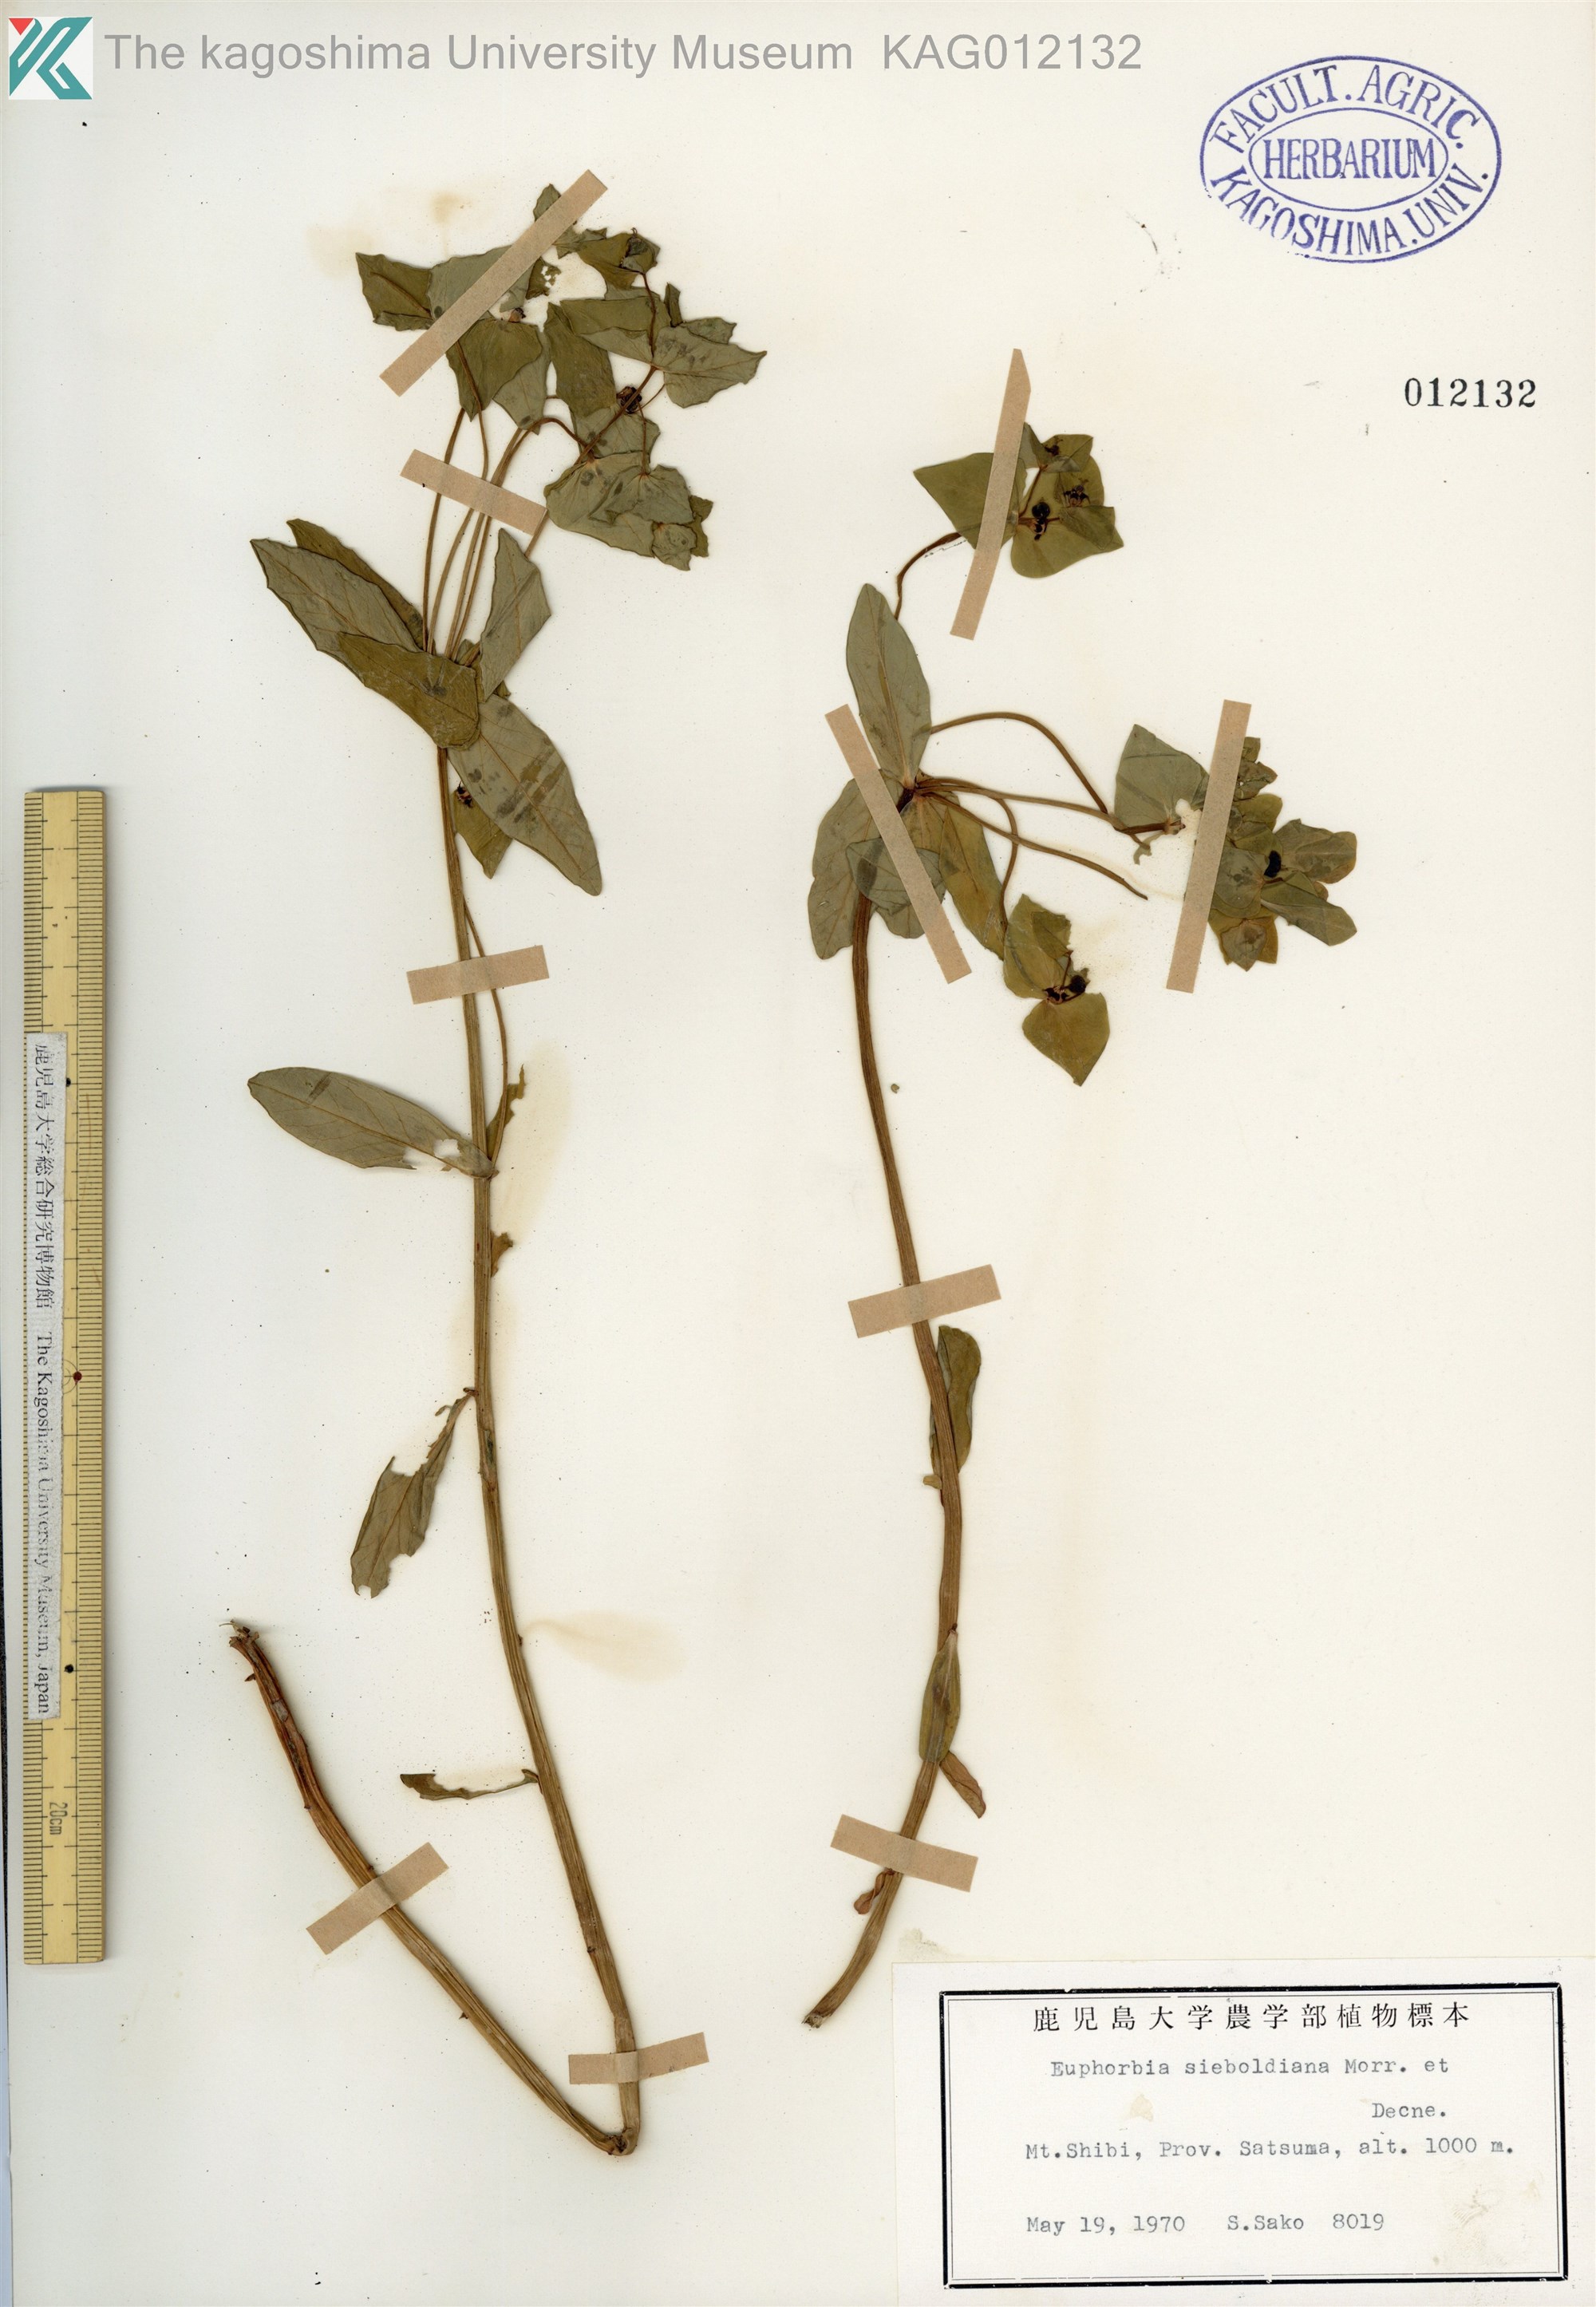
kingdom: Plantae
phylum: Tracheophyta
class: Magnoliopsida
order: Malpighiales
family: Euphorbiaceae
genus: Euphorbia
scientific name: Euphorbia sieboldiana
